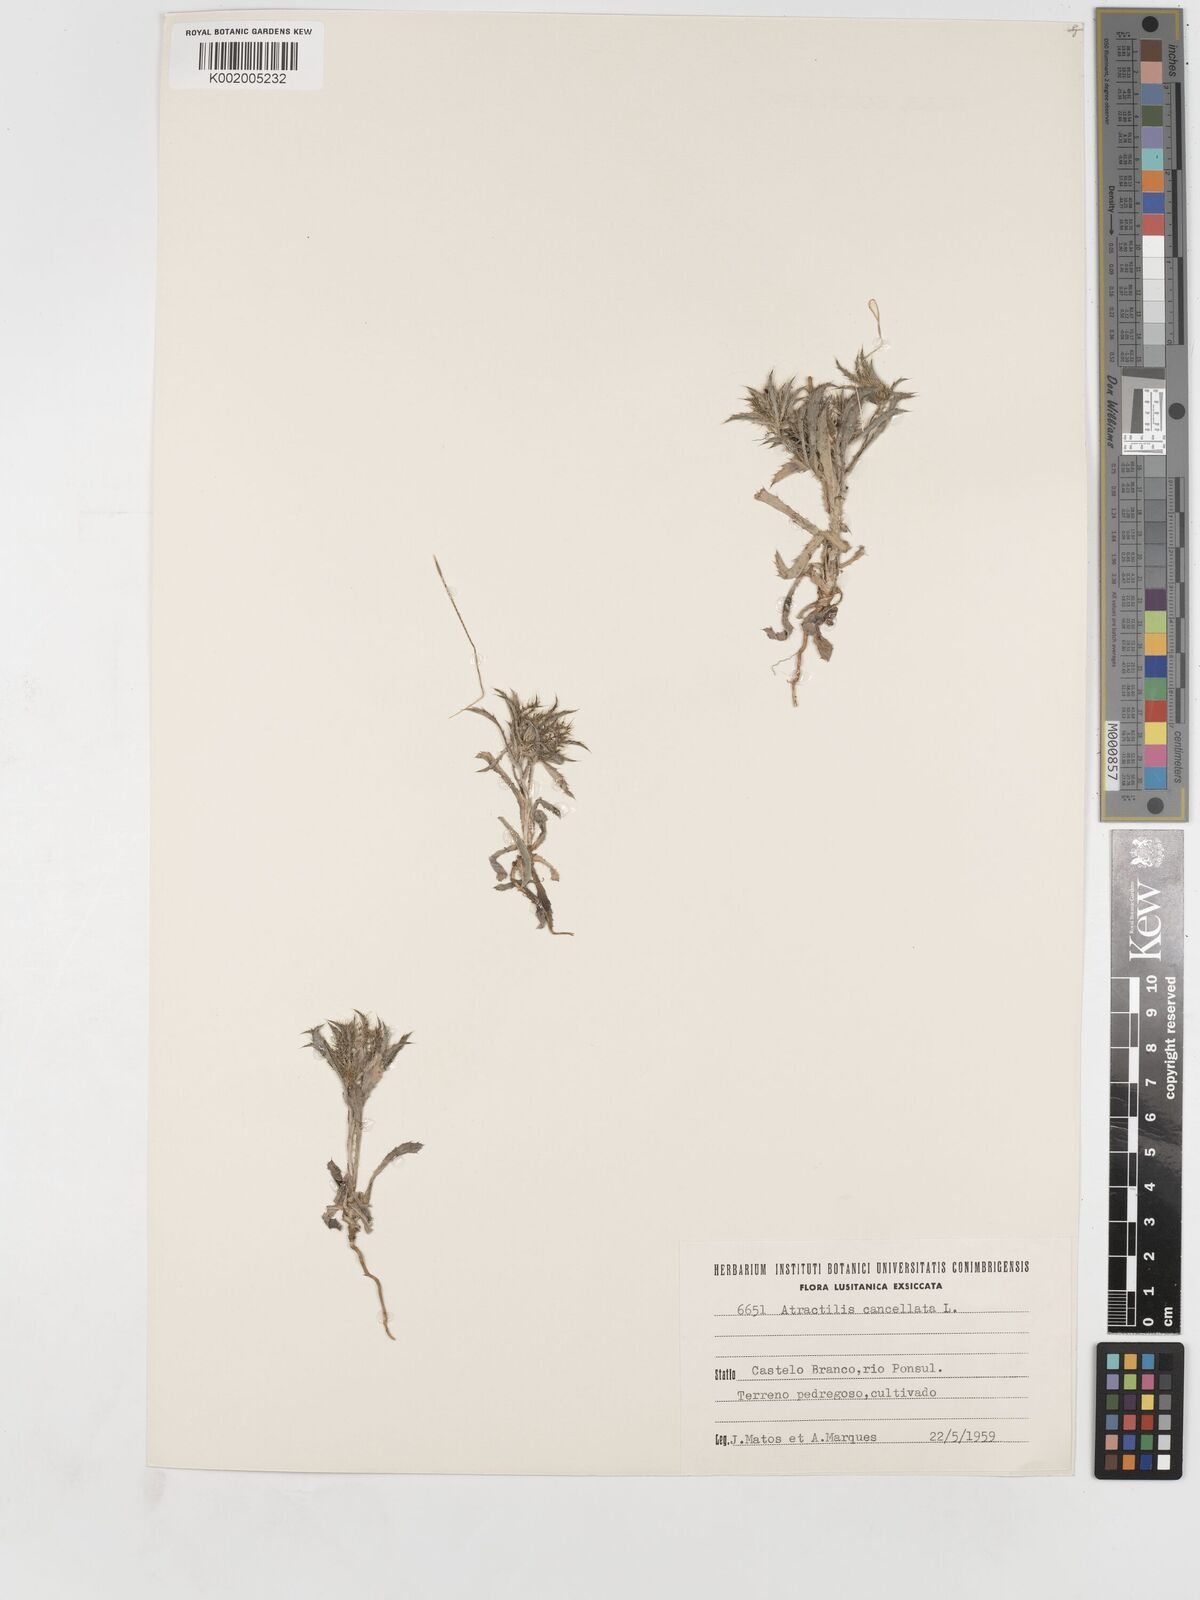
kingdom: Plantae
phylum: Tracheophyta
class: Magnoliopsida
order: Asterales
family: Asteraceae
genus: Atractylis
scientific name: Atractylis cancellata
